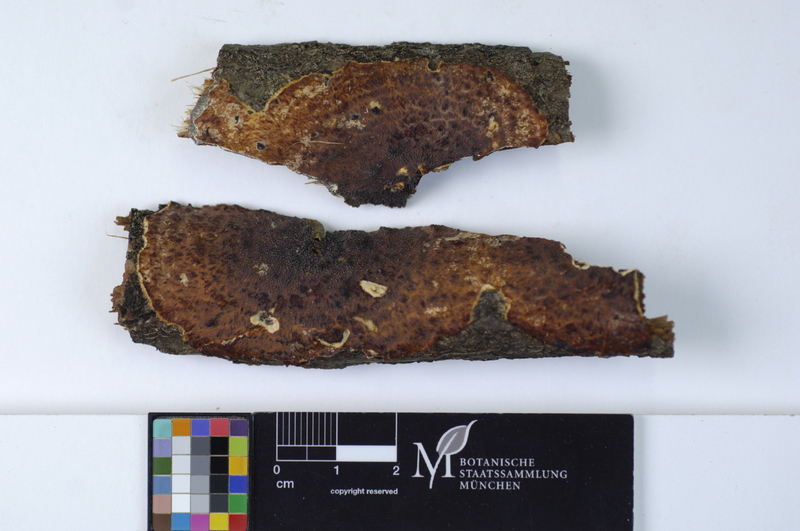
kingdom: Fungi
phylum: Basidiomycota
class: Agaricomycetes
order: Polyporales
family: Meruliaceae
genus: Stereophlebia
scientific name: Stereophlebia tuberculata
